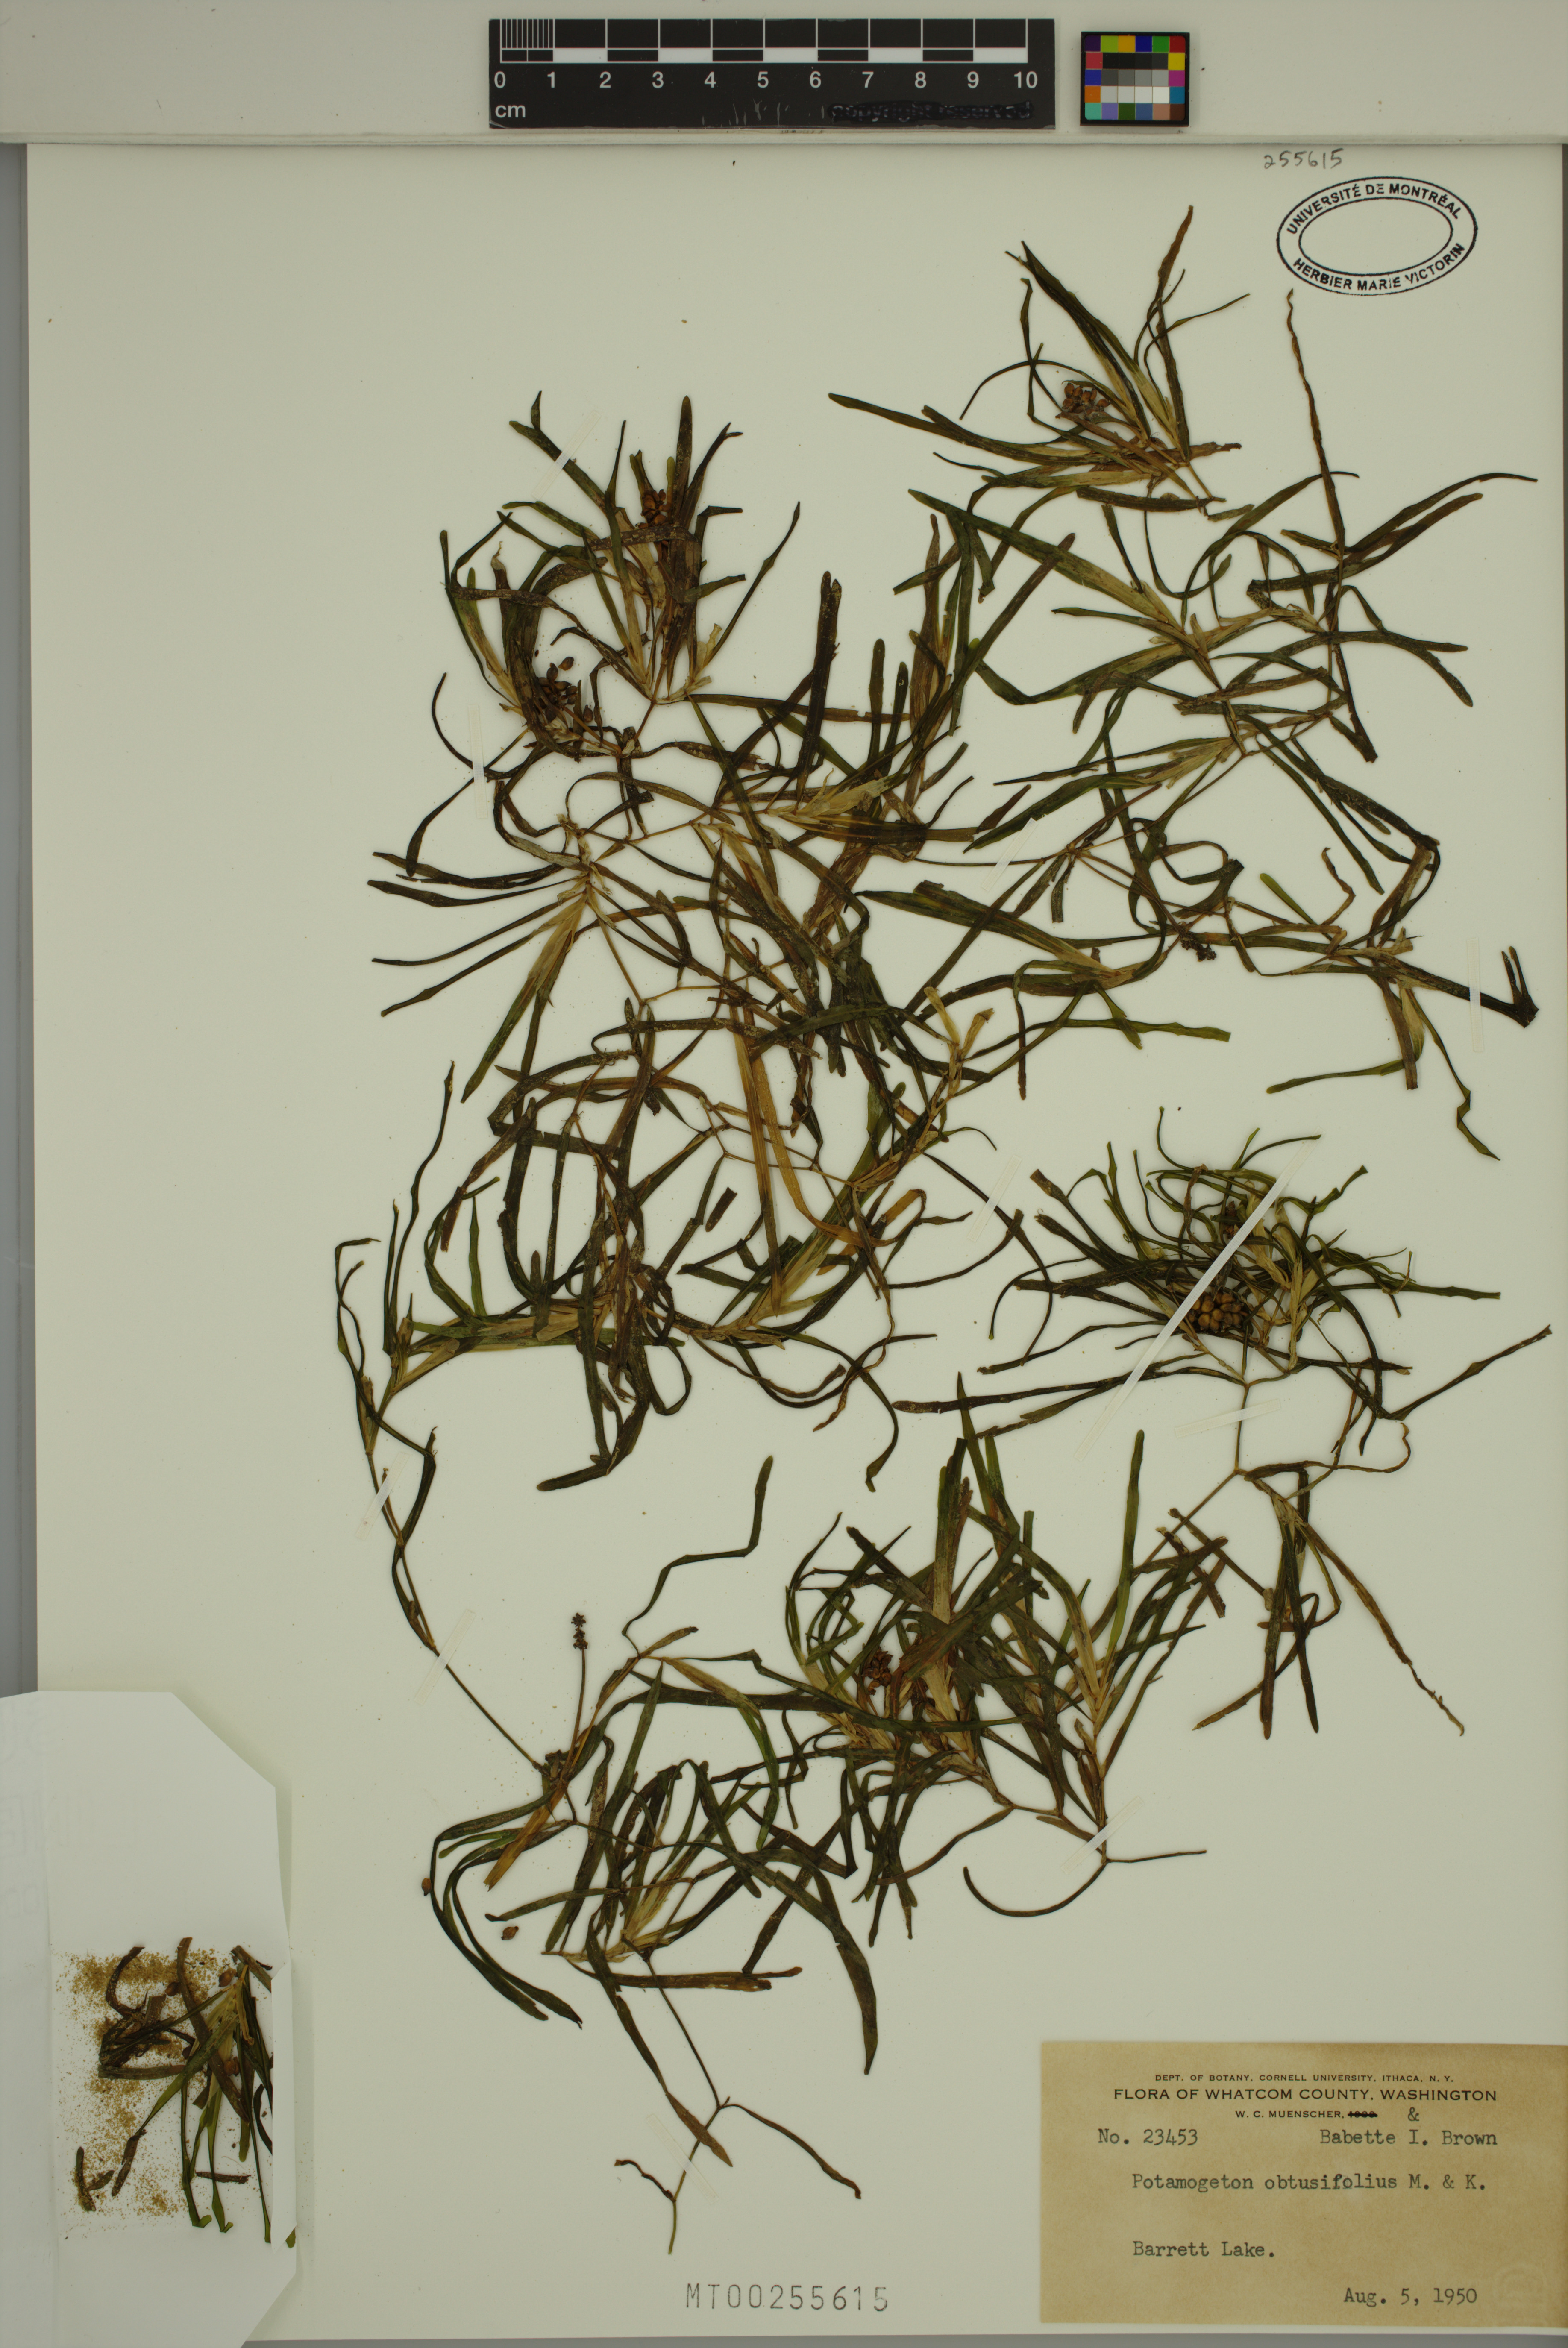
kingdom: Plantae
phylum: Tracheophyta
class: Liliopsida
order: Alismatales
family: Potamogetonaceae
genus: Potamogeton
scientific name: Potamogeton obtusifolius
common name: Blunt-leaved pondweed
